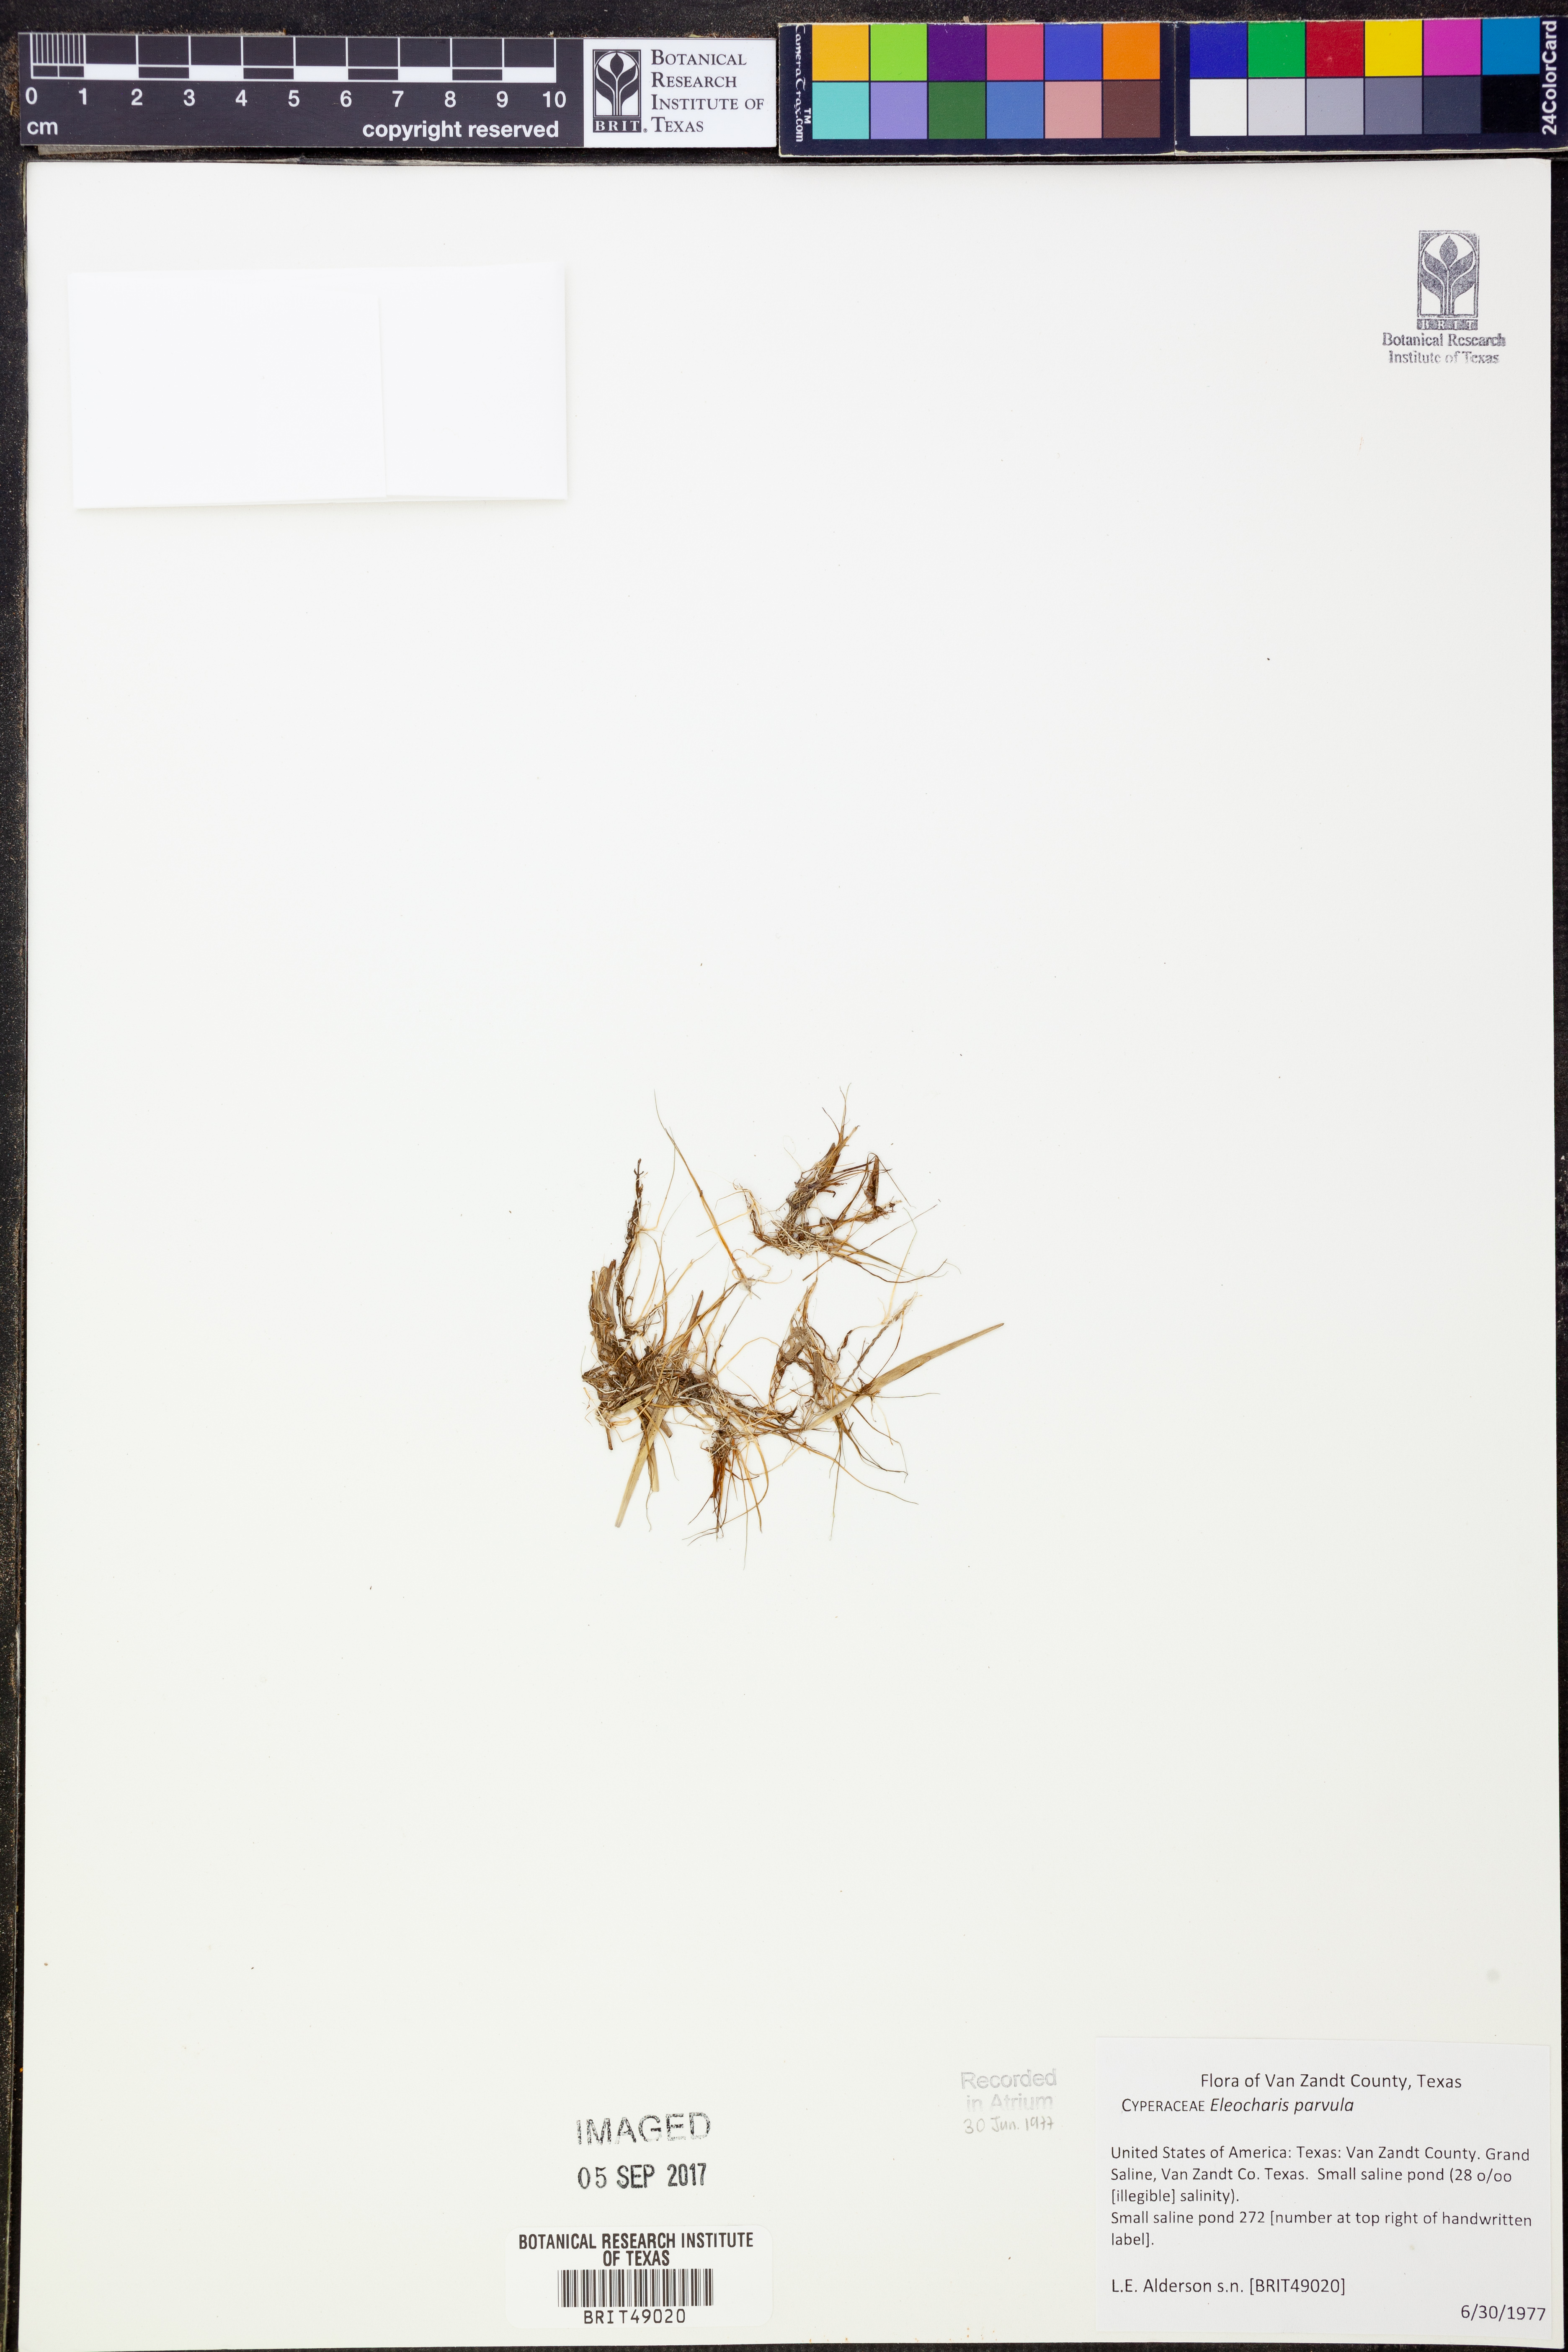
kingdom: Plantae
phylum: Tracheophyta
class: Liliopsida
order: Poales
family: Cyperaceae
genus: Eleocharis
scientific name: Eleocharis parvula
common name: Dwarf spike-rush
